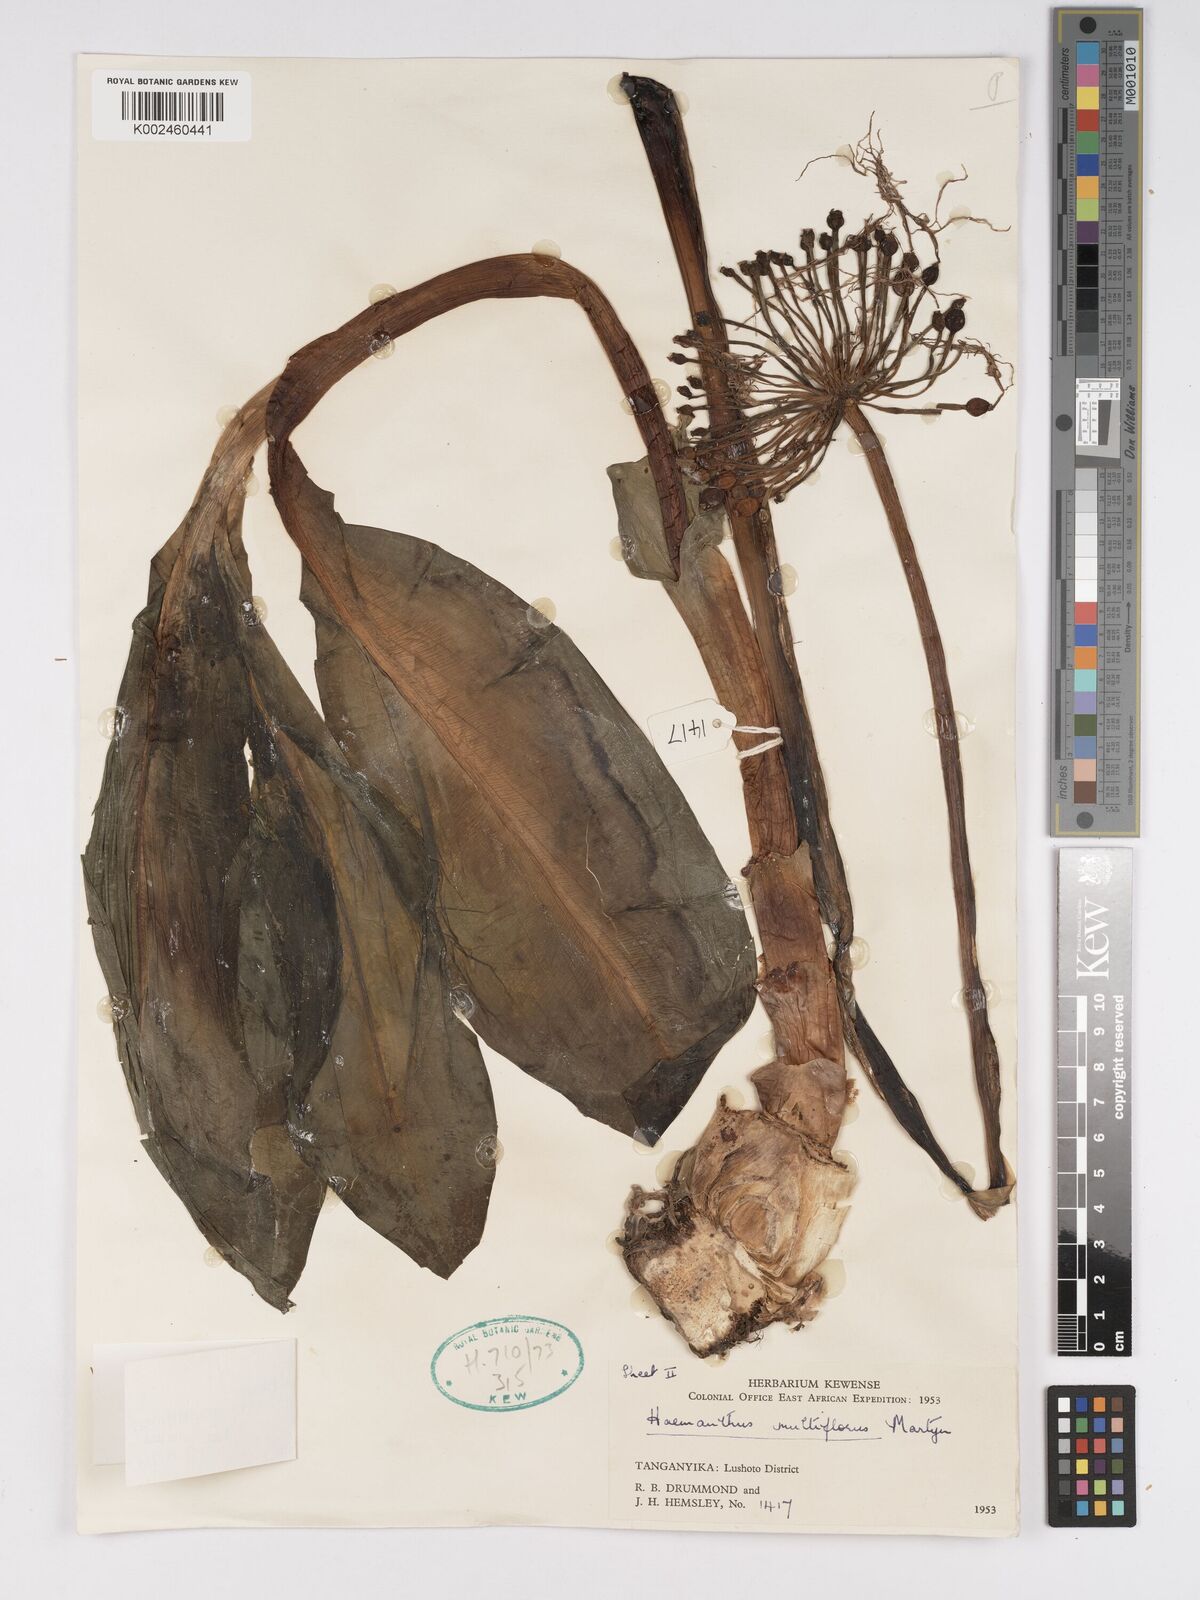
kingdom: Plantae
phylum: Tracheophyta
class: Liliopsida
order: Asparagales
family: Amaryllidaceae
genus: Scadoxus
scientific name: Scadoxus multiflorus
